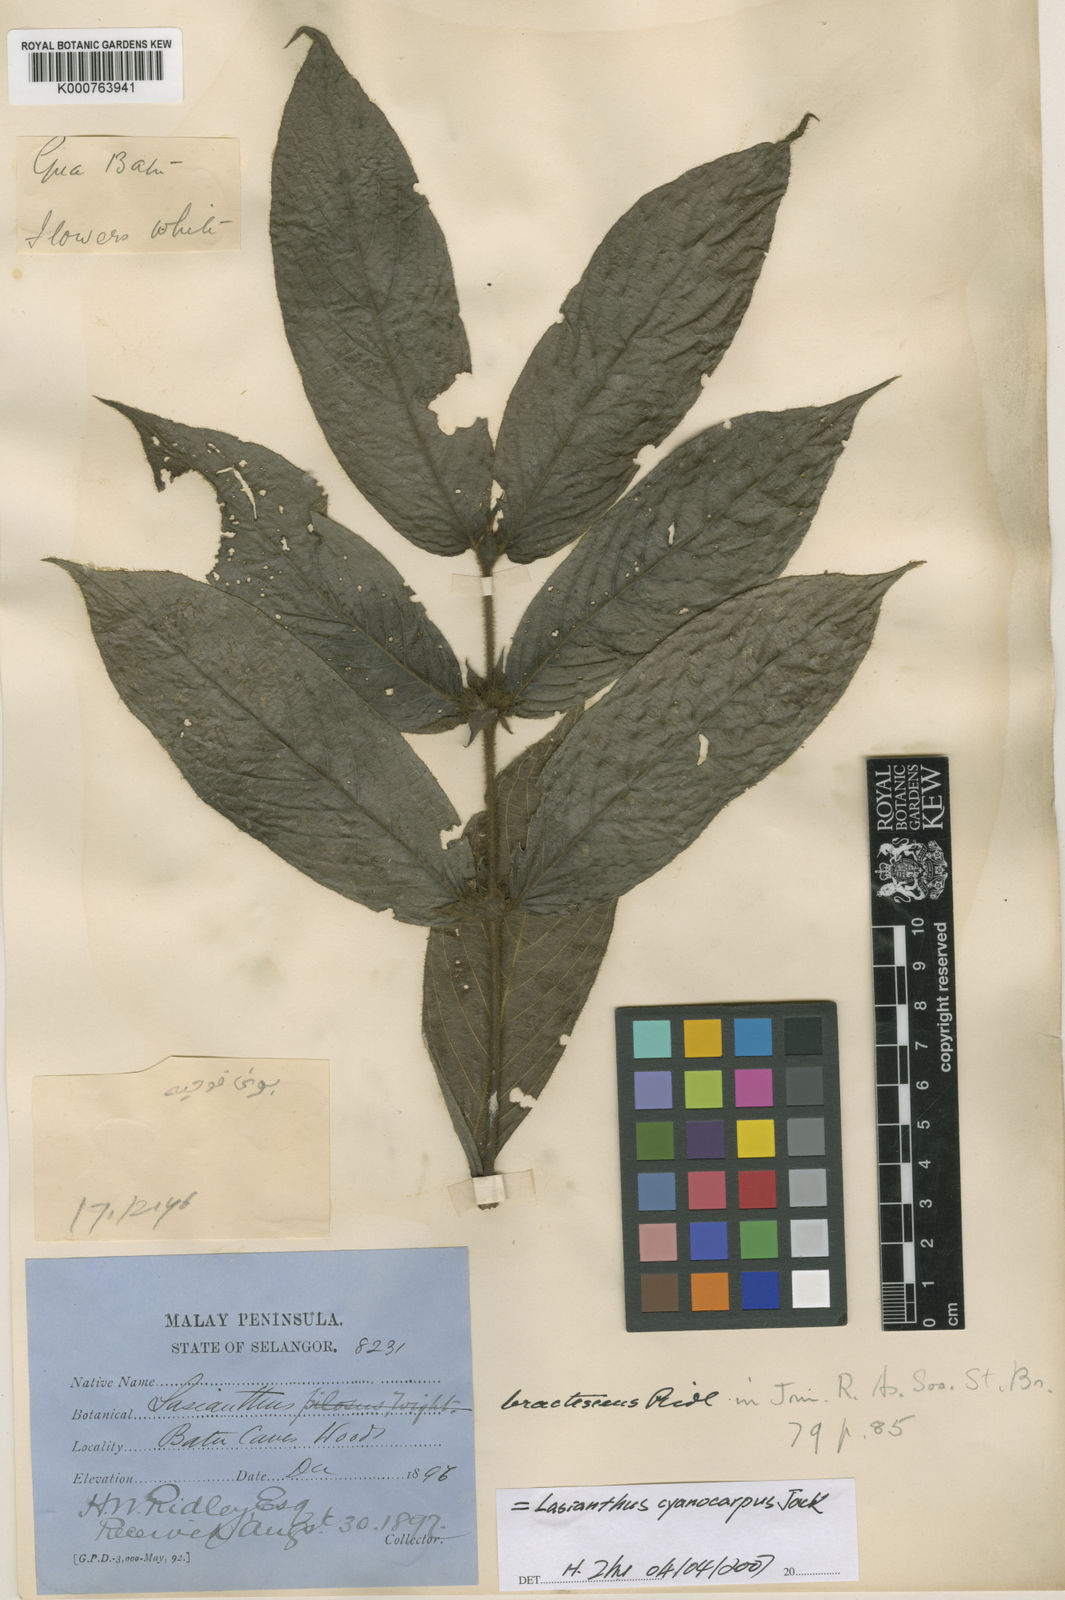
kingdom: Plantae
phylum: Tracheophyta
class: Magnoliopsida
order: Gentianales
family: Rubiaceae
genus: Lasianthus
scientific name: Lasianthus cyanocarpus
